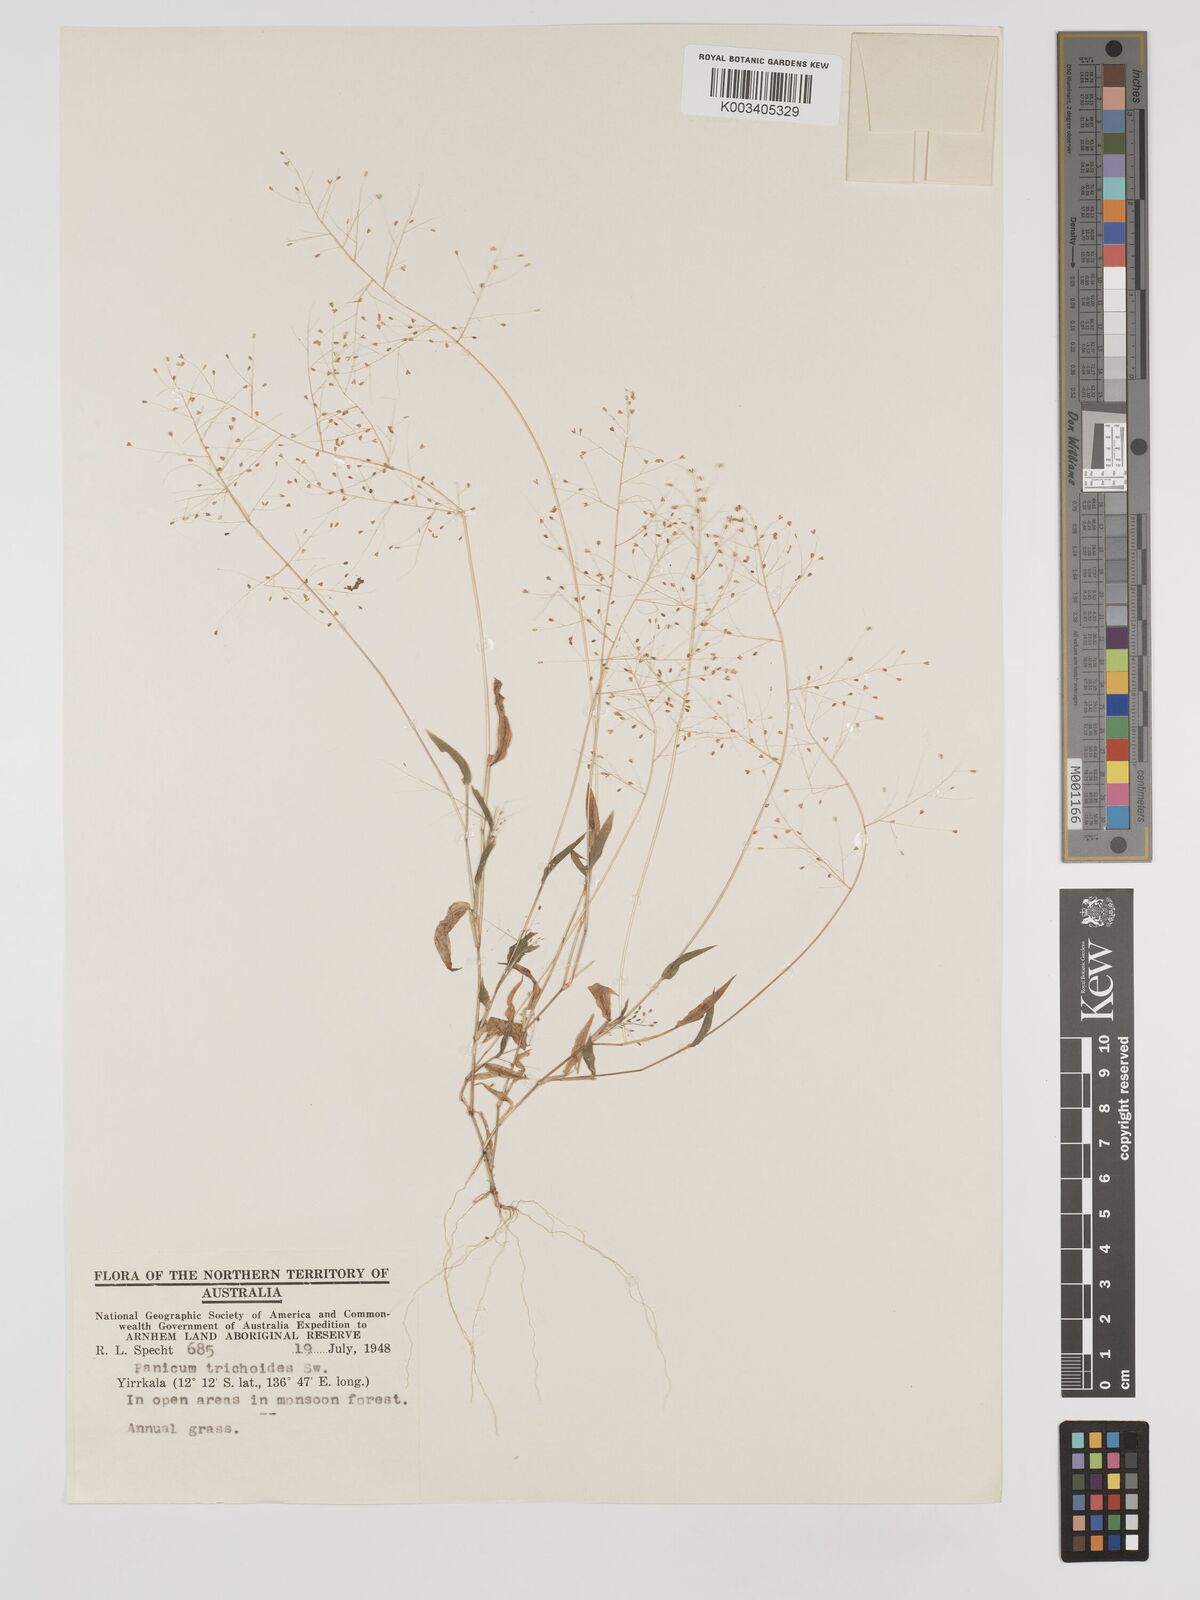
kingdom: Plantae
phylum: Tracheophyta
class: Liliopsida
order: Poales
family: Poaceae
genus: Panicum
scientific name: Panicum trichoides
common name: Tickle grass
